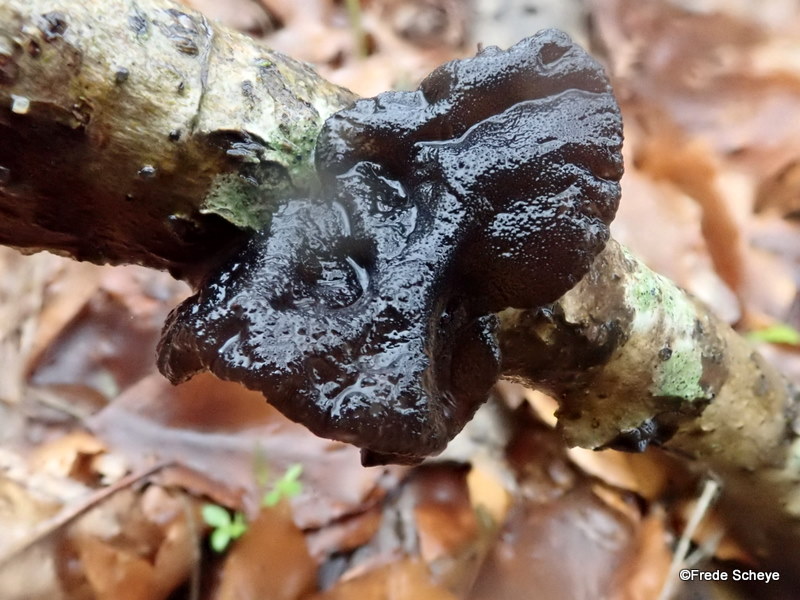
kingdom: Fungi
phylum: Basidiomycota
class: Agaricomycetes
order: Auriculariales
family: Auriculariaceae
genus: Exidia
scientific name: Exidia glandulosa
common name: ege-bævretop
